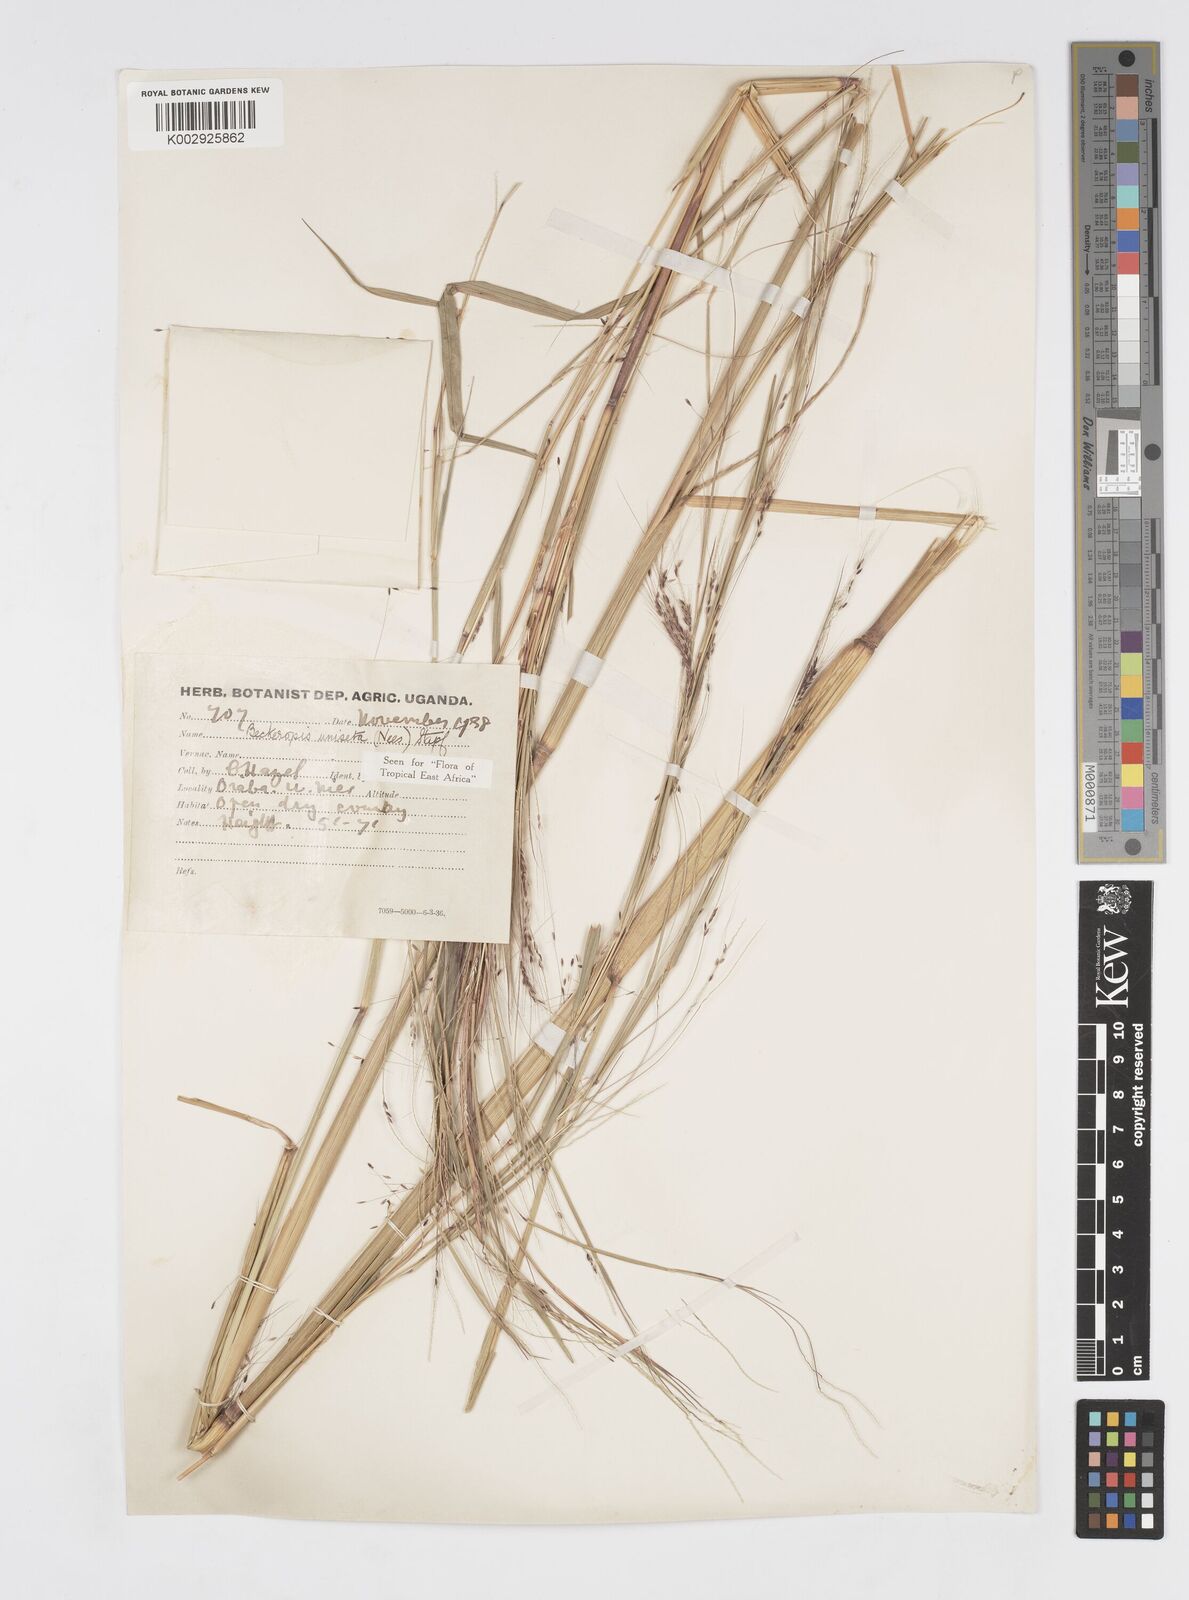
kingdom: Plantae
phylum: Tracheophyta
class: Liliopsida
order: Poales
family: Poaceae
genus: Cenchrus
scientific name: Cenchrus unisetus
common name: Natal grass
